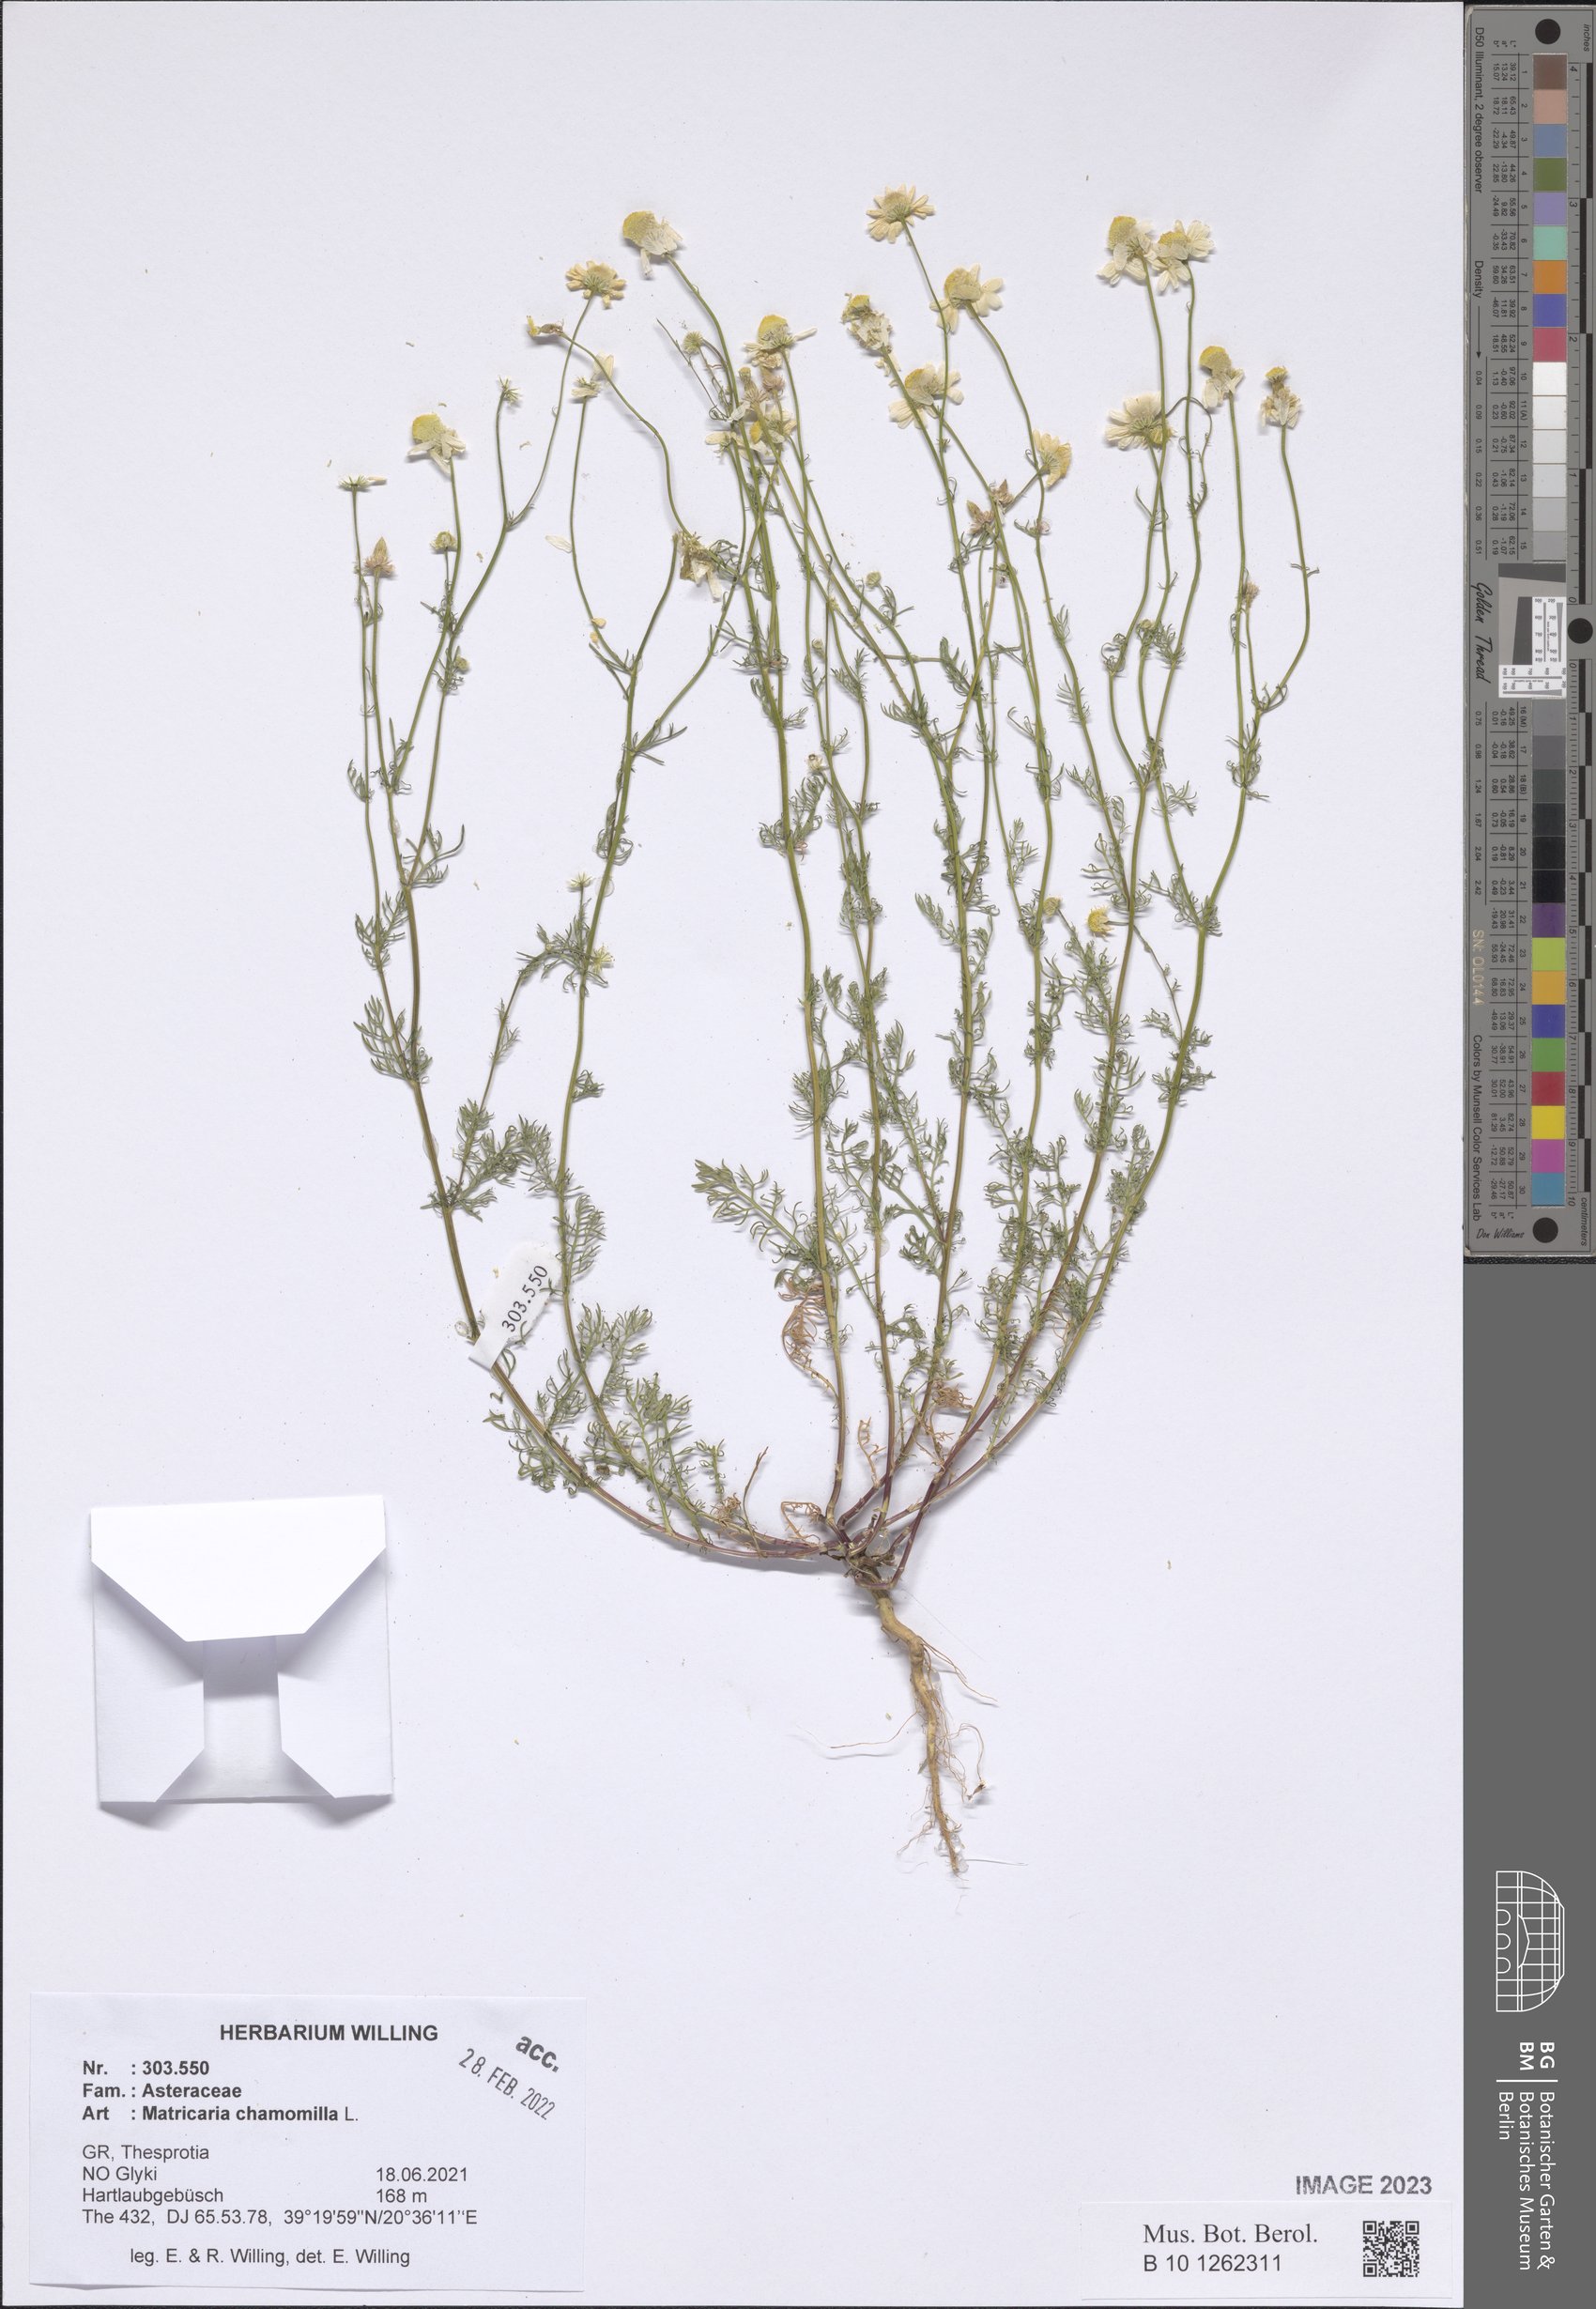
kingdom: Plantae
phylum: Tracheophyta
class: Magnoliopsida
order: Asterales
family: Asteraceae
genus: Matricaria
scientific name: Matricaria chamomilla
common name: Scented mayweed
